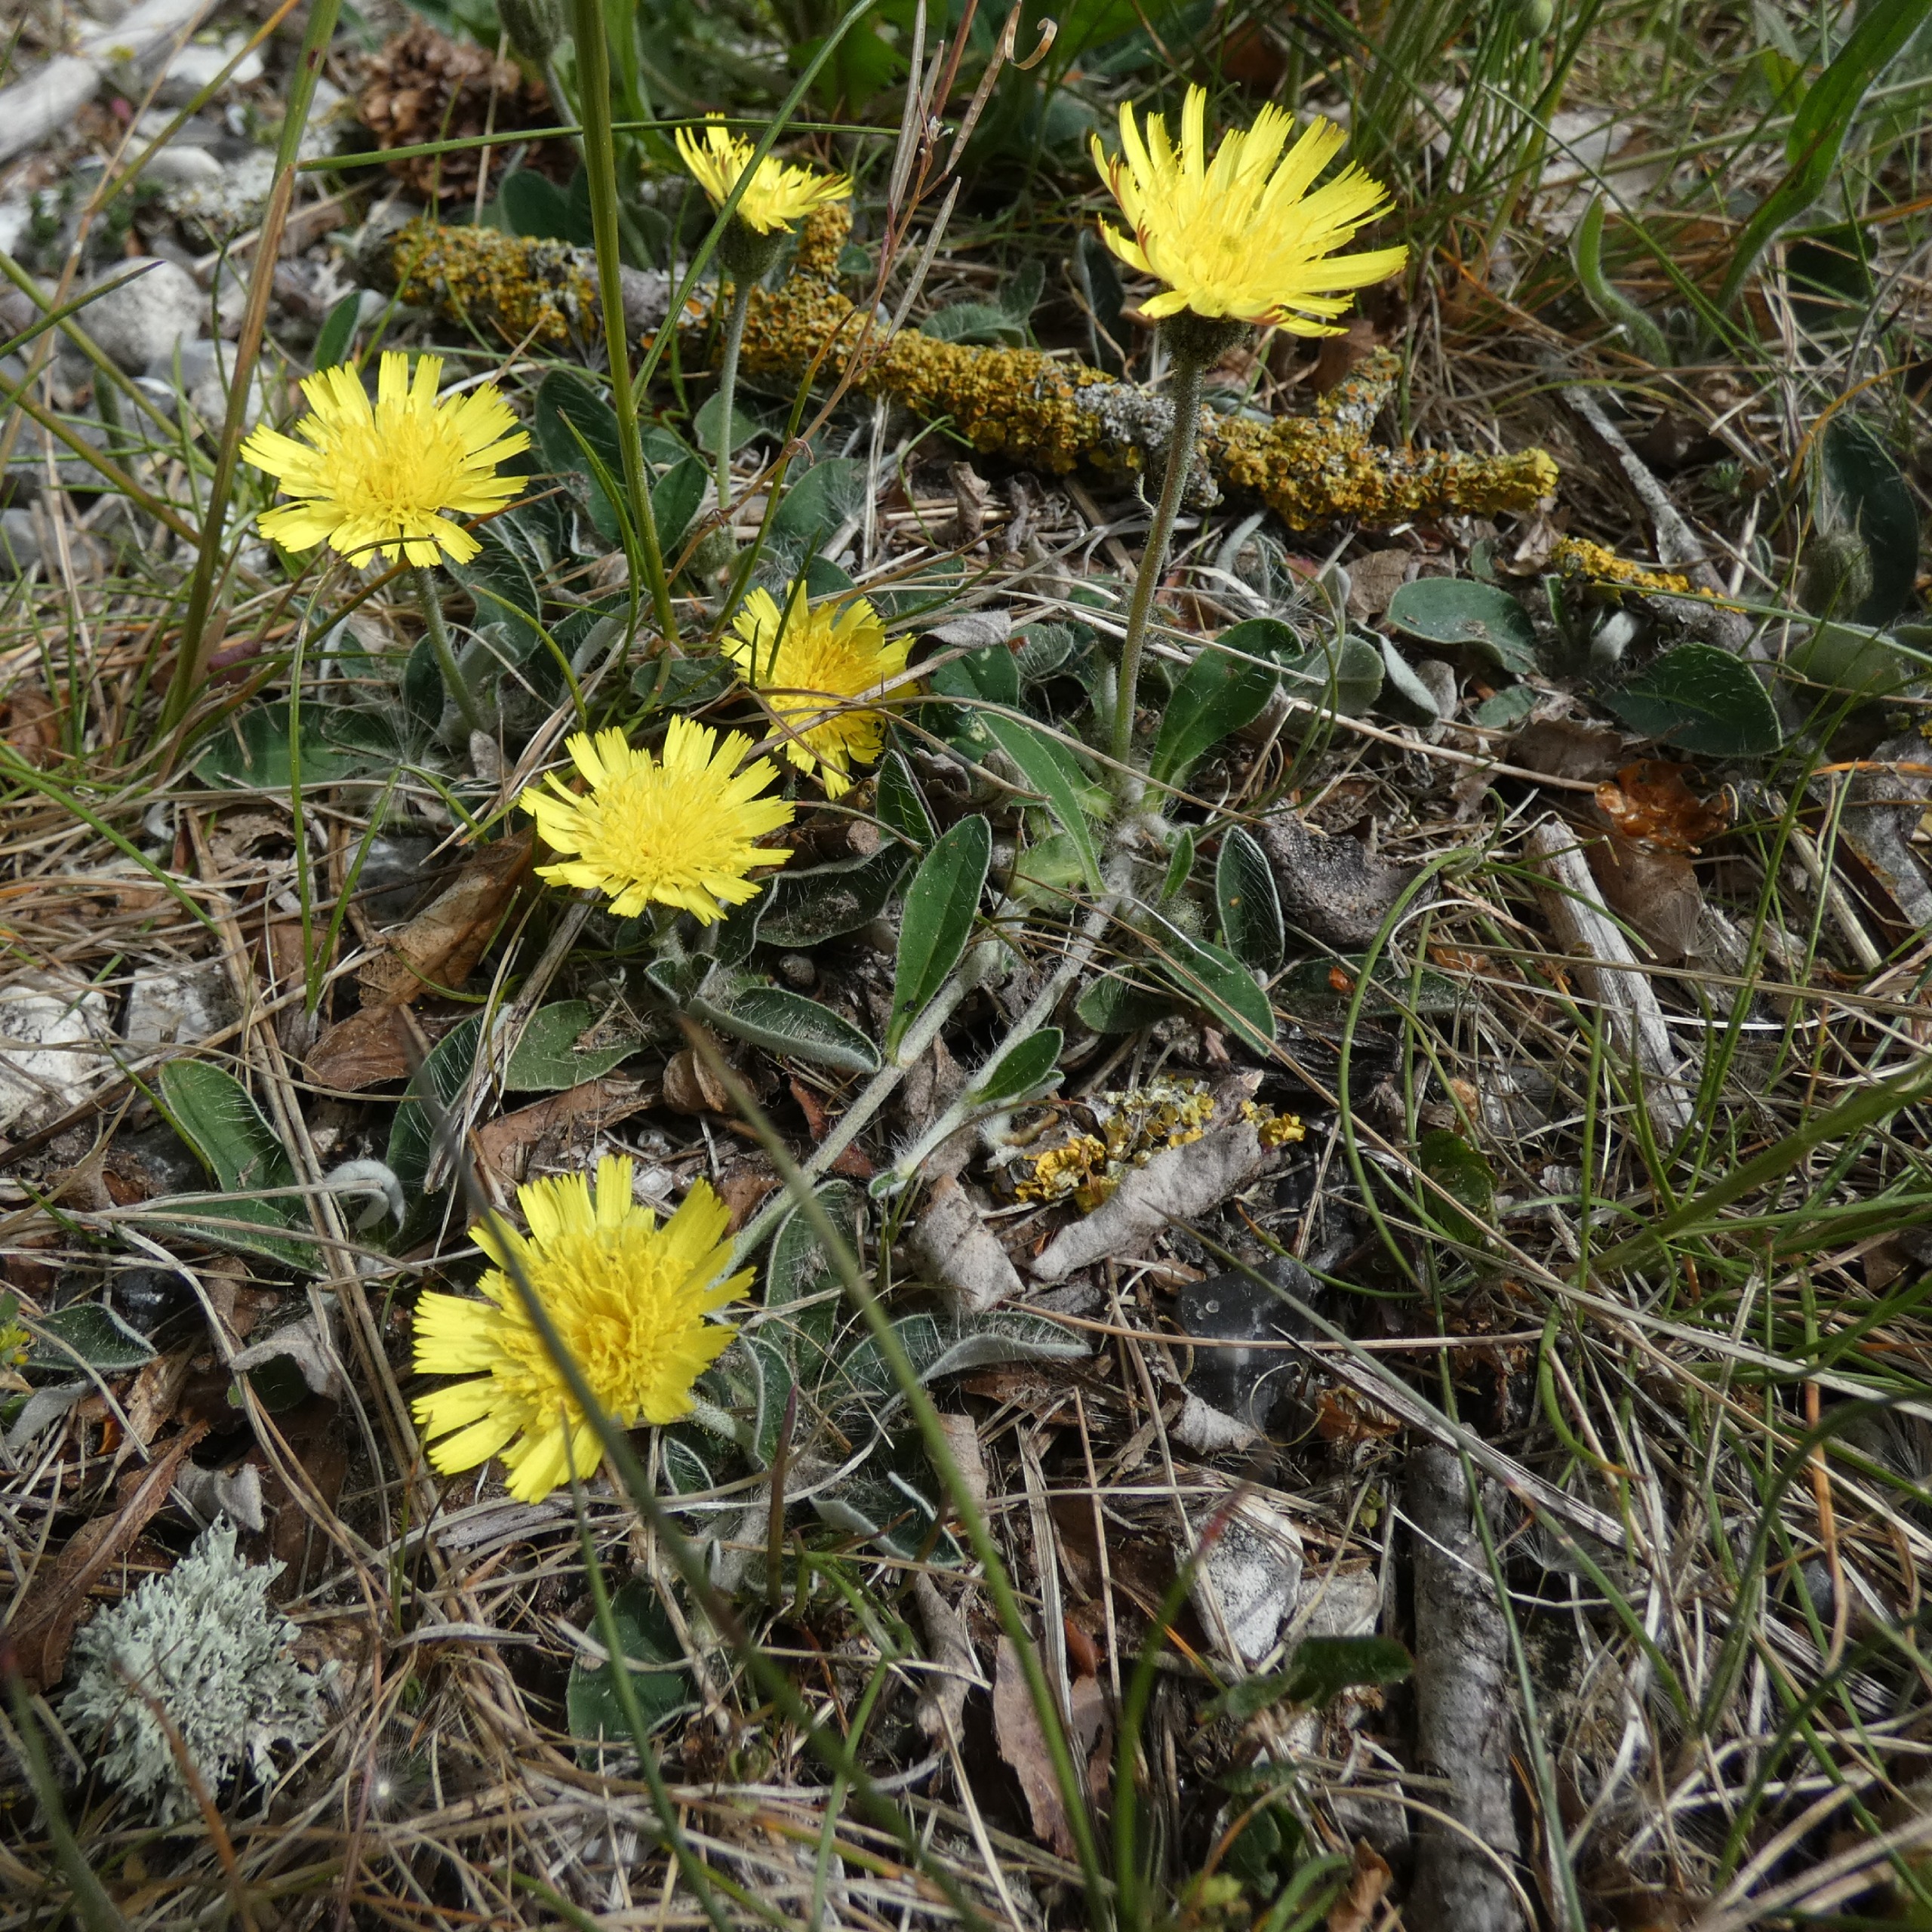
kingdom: Plantae
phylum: Tracheophyta
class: Magnoliopsida
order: Asterales
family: Asteraceae
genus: Pilosella
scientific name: Pilosella officinarum
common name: Håret høgeurt
